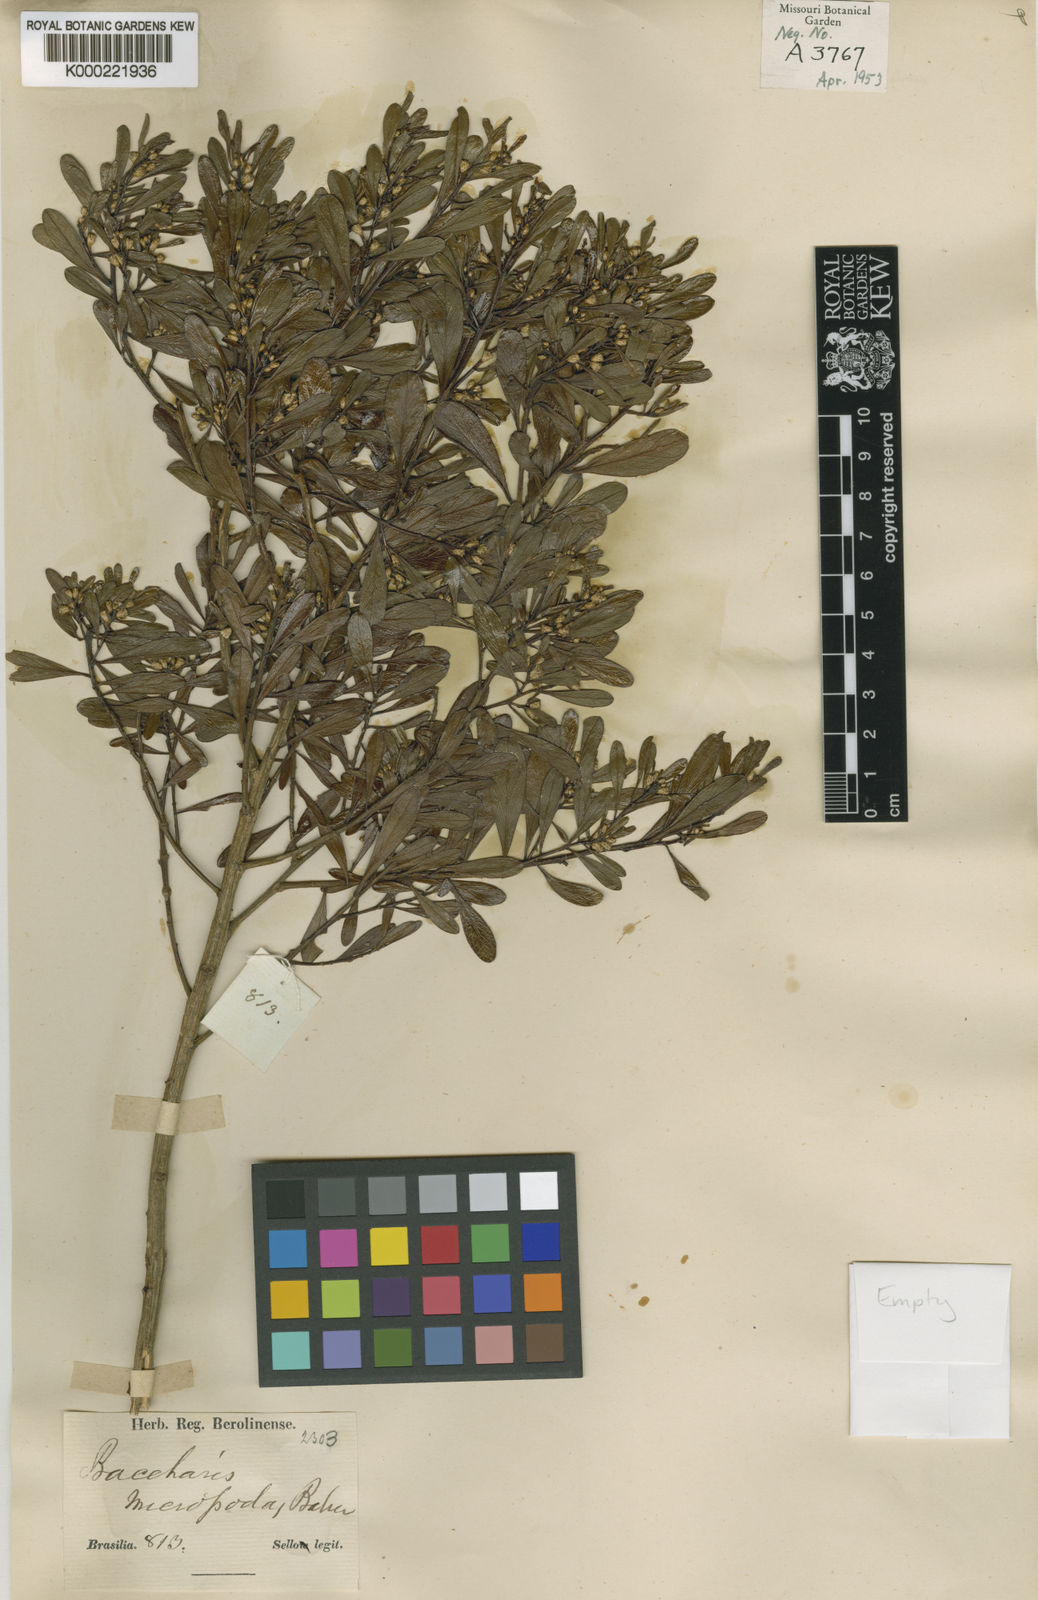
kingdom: Plantae
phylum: Tracheophyta
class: Magnoliopsida
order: Asterales
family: Asteraceae
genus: Baccharis
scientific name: Baccharis reticularia
